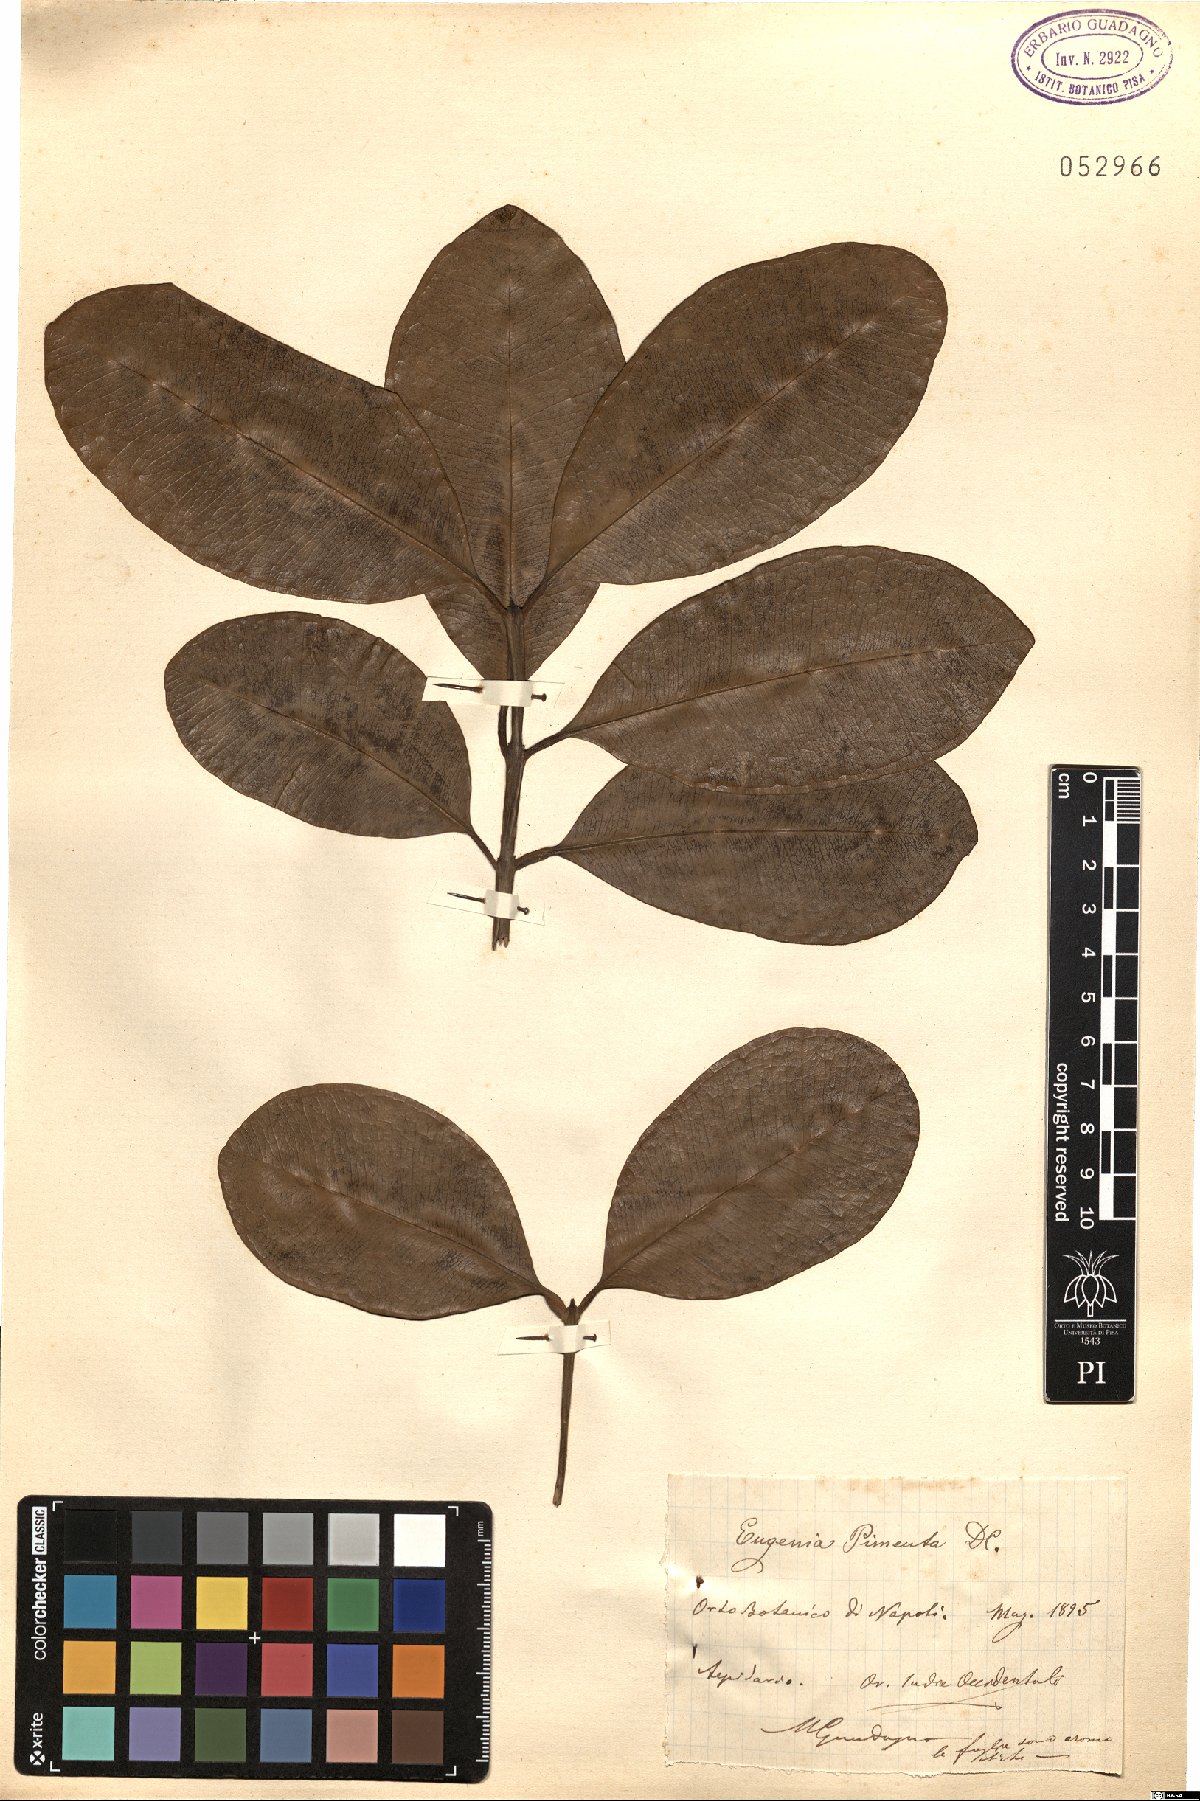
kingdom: Plantae
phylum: Tracheophyta
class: Magnoliopsida
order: Myrtales
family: Myrtaceae
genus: Pimenta
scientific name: Pimenta dioica
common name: Allspice
